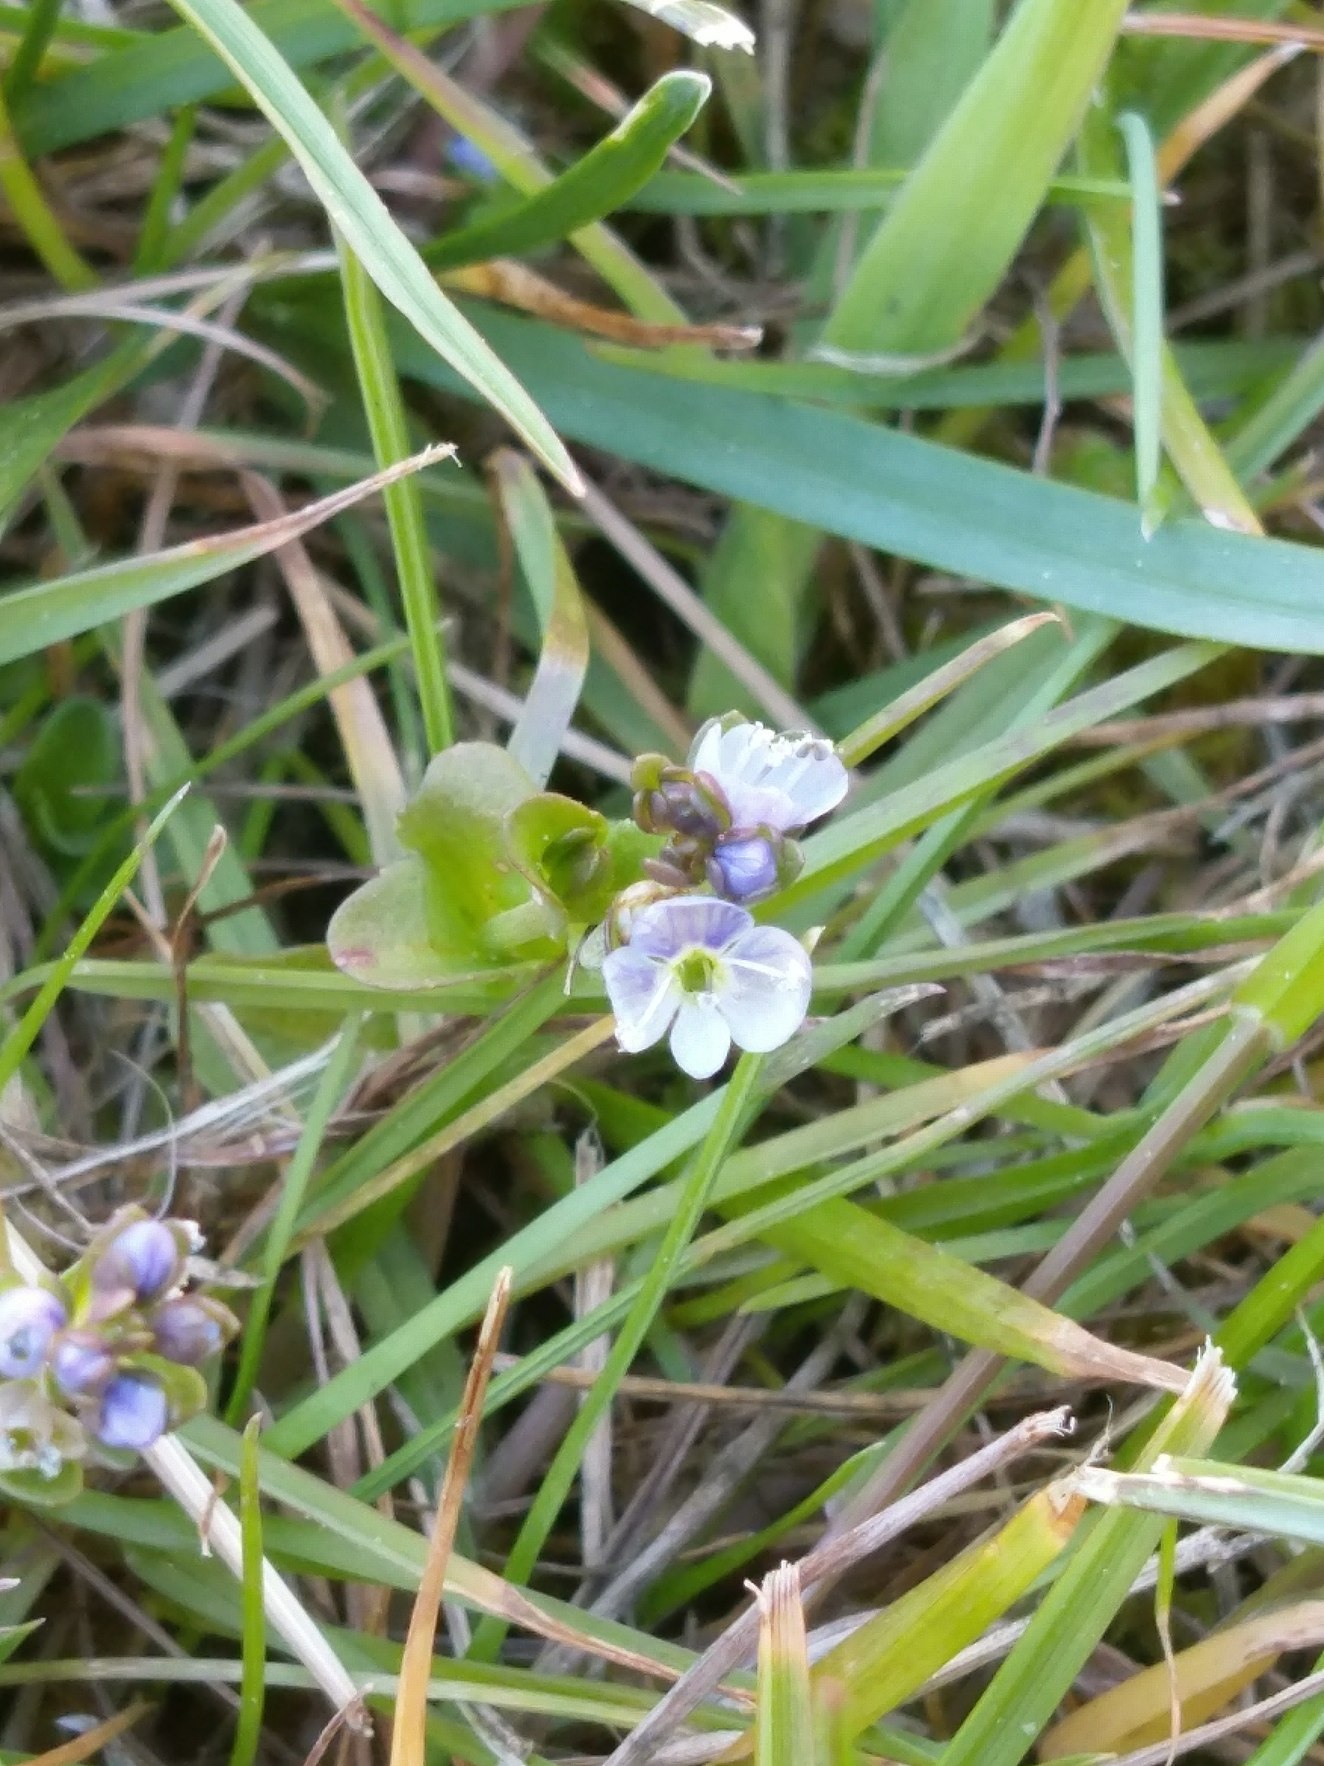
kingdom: Plantae
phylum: Tracheophyta
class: Magnoliopsida
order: Lamiales
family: Plantaginaceae
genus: Veronica
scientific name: Veronica serpyllifolia
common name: Glat ærenpris
